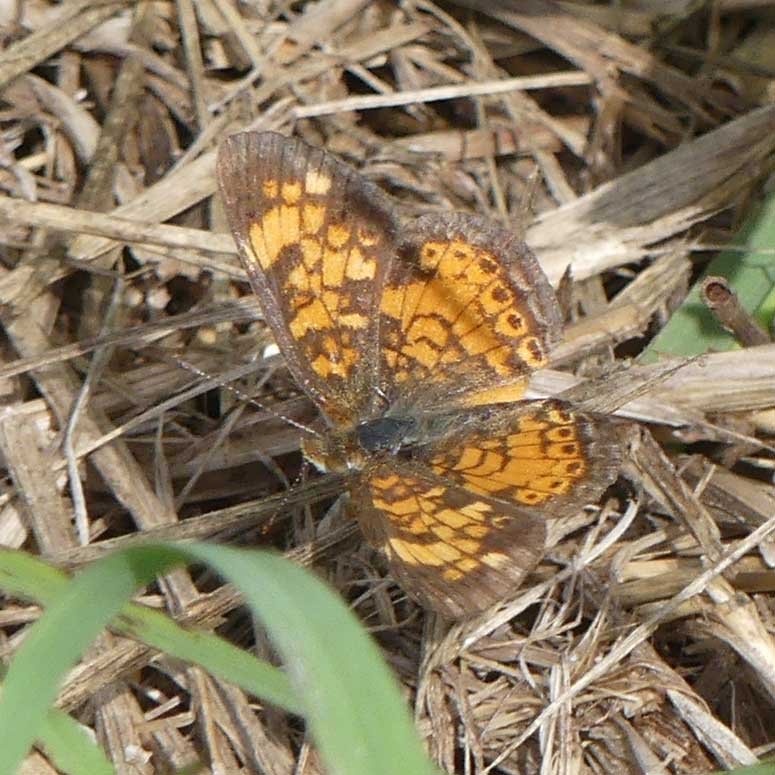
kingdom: Animalia
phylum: Arthropoda
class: Insecta
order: Lepidoptera
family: Nymphalidae
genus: Phyciodes
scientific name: Phyciodes tharos
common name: Pearl Crescent
